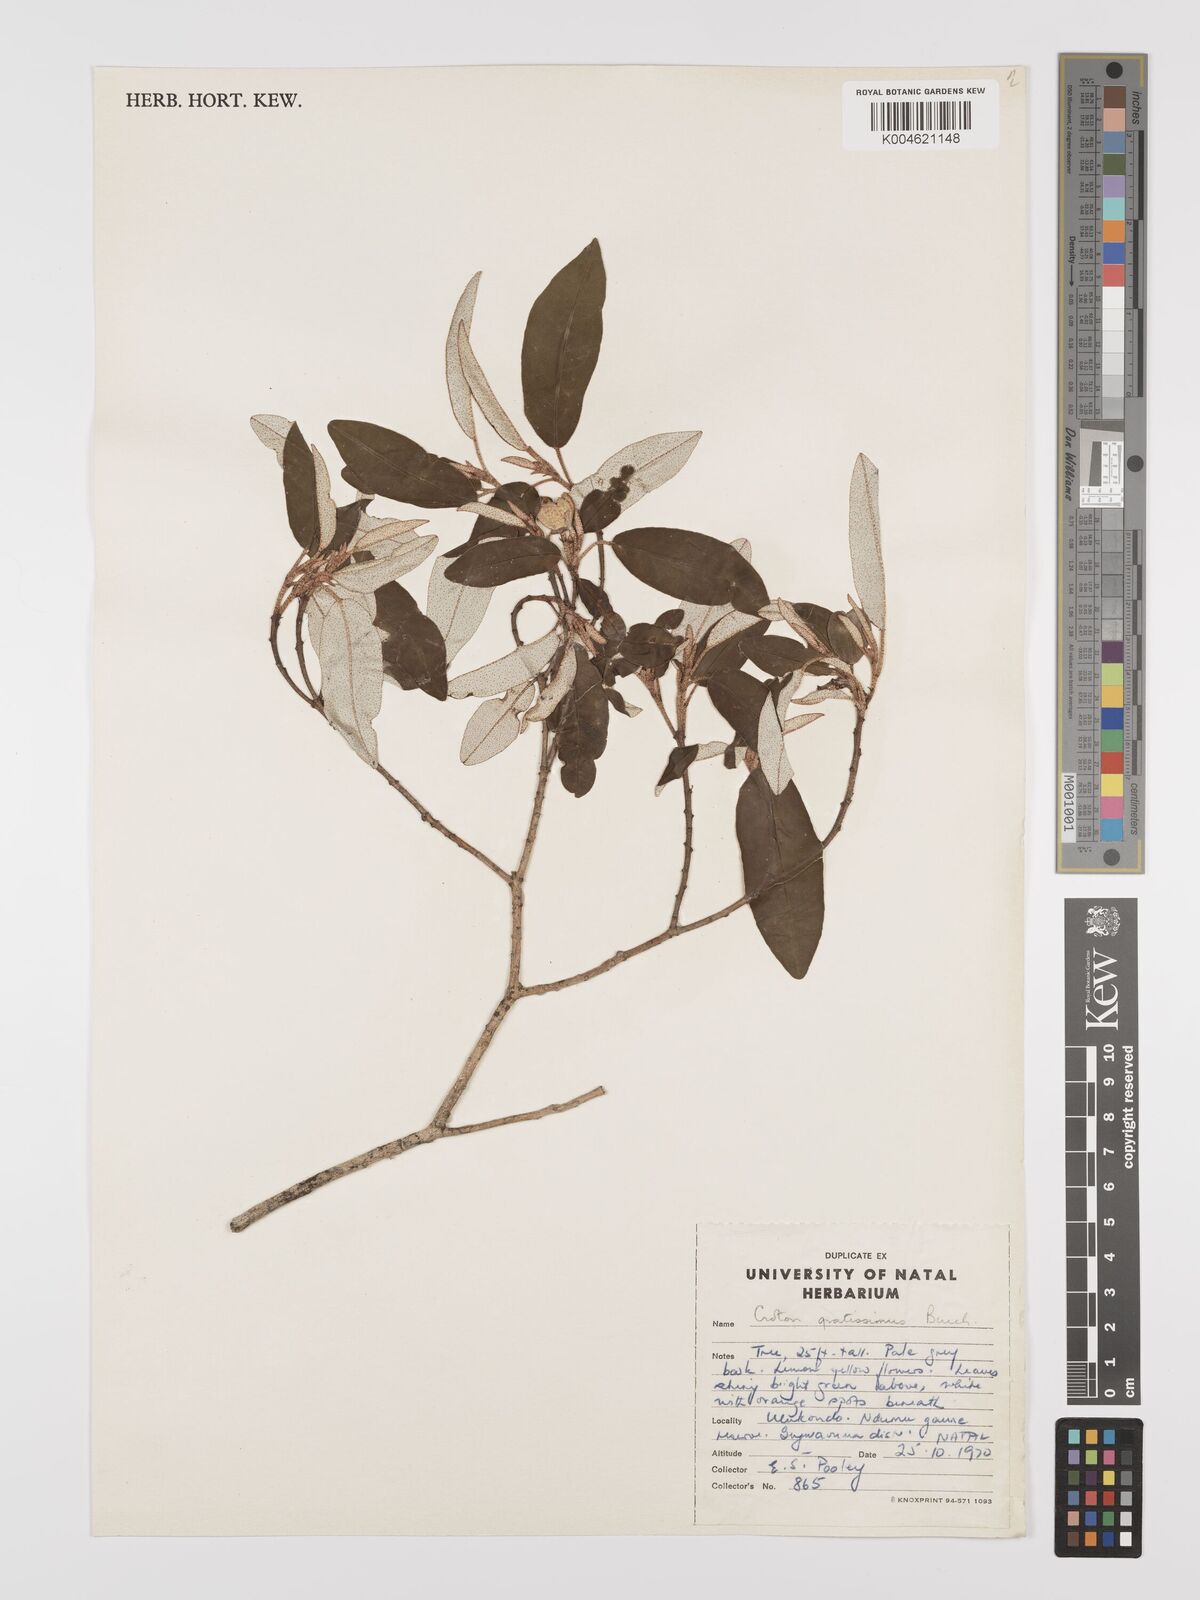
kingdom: Plantae
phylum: Tracheophyta
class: Magnoliopsida
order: Malpighiales
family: Euphorbiaceae
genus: Croton
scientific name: Croton gratissimus
